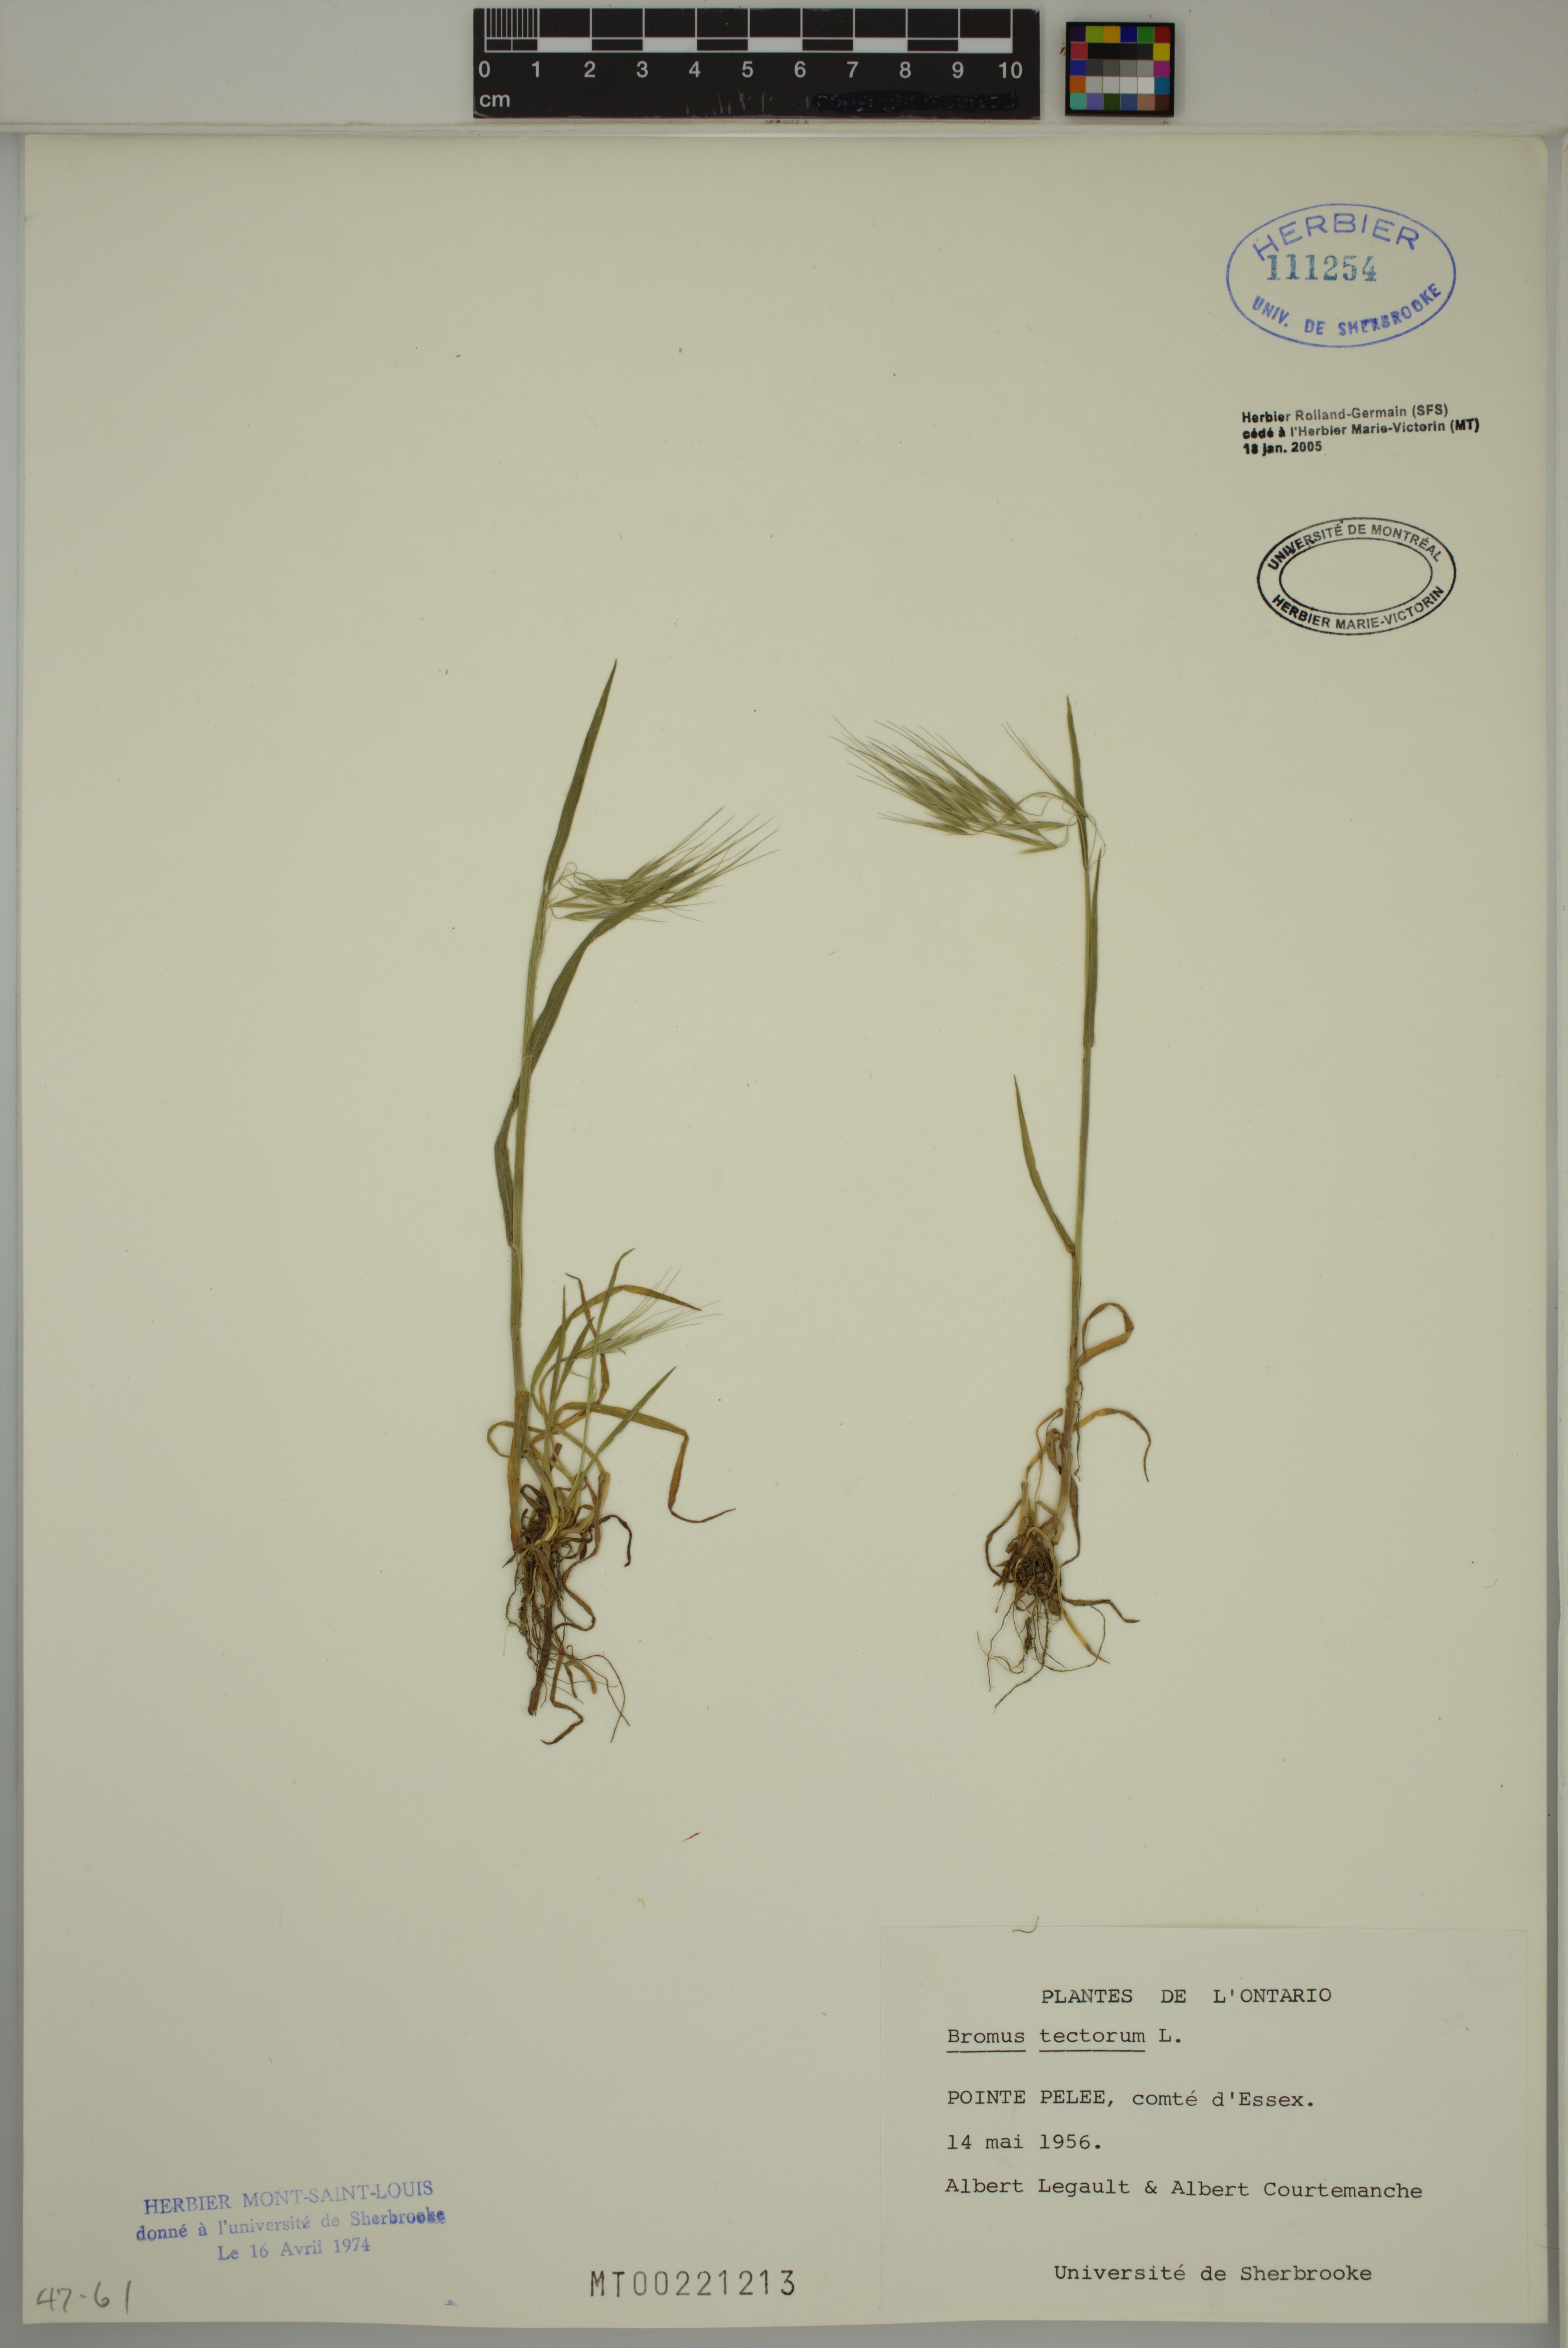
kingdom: Plantae
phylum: Tracheophyta
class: Liliopsida
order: Poales
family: Poaceae
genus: Bromus
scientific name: Bromus tectorum
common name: Cheatgrass
